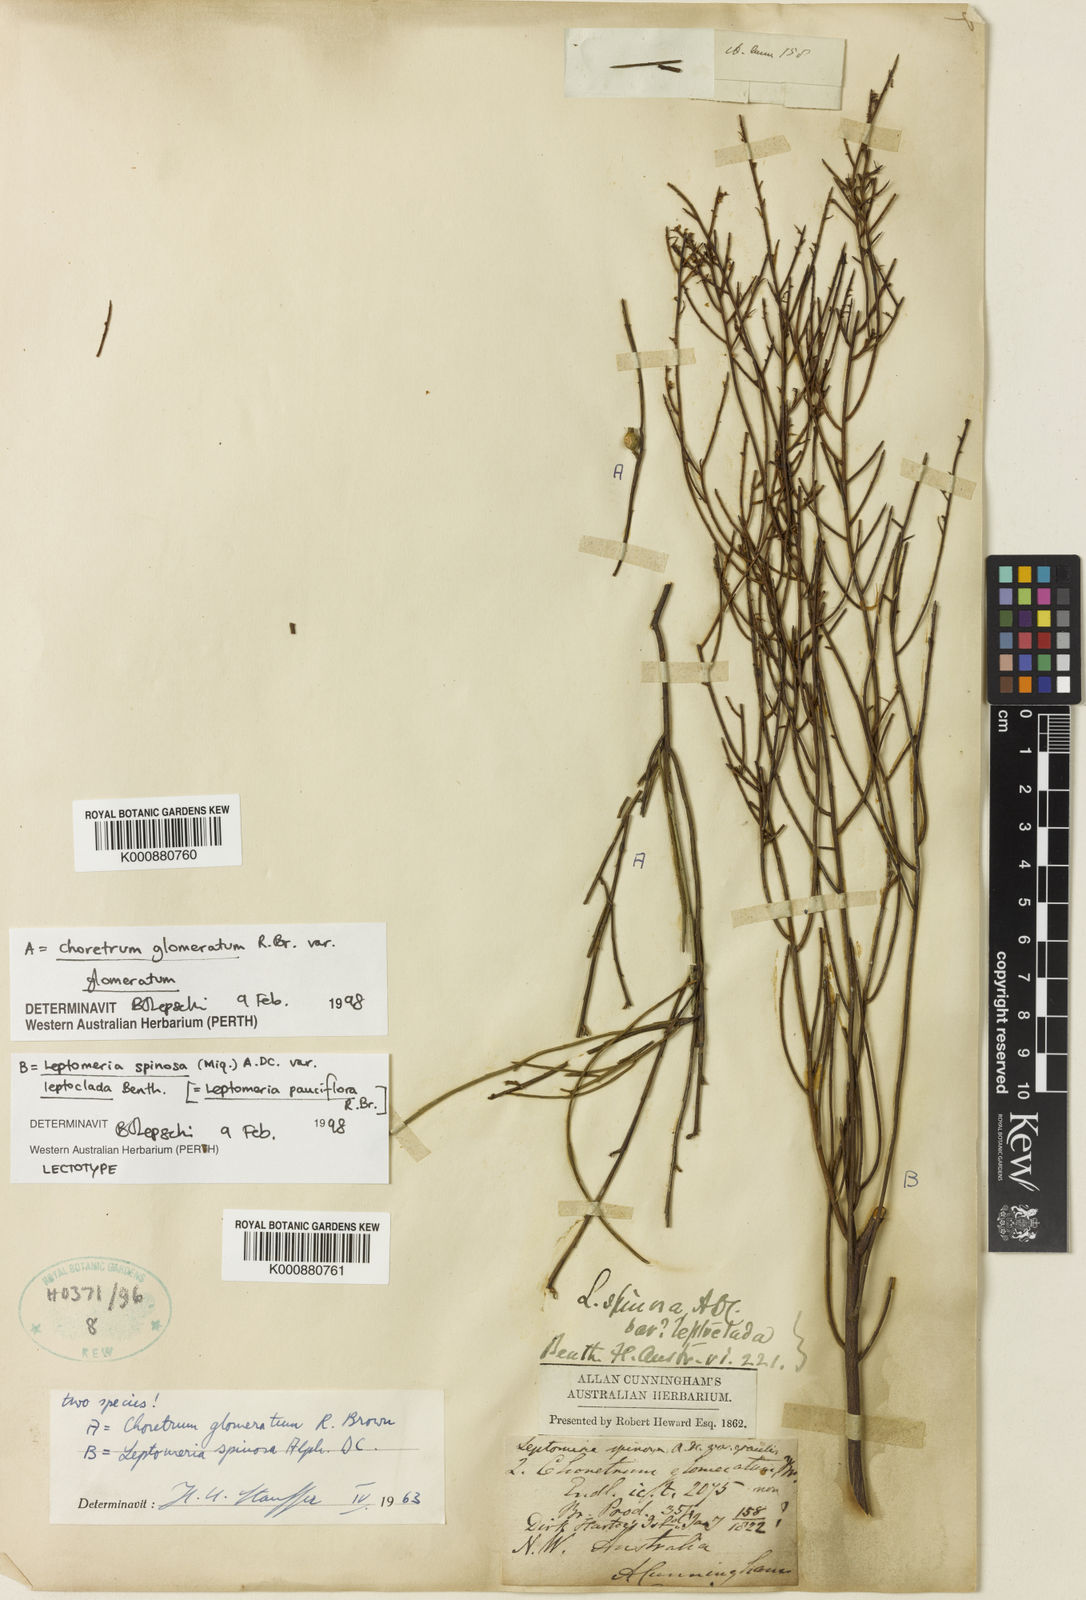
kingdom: Plantae
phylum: Tracheophyta
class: Magnoliopsida
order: Santalales
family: Amphorogynaceae
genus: Leptomeria
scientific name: Leptomeria spinosa
